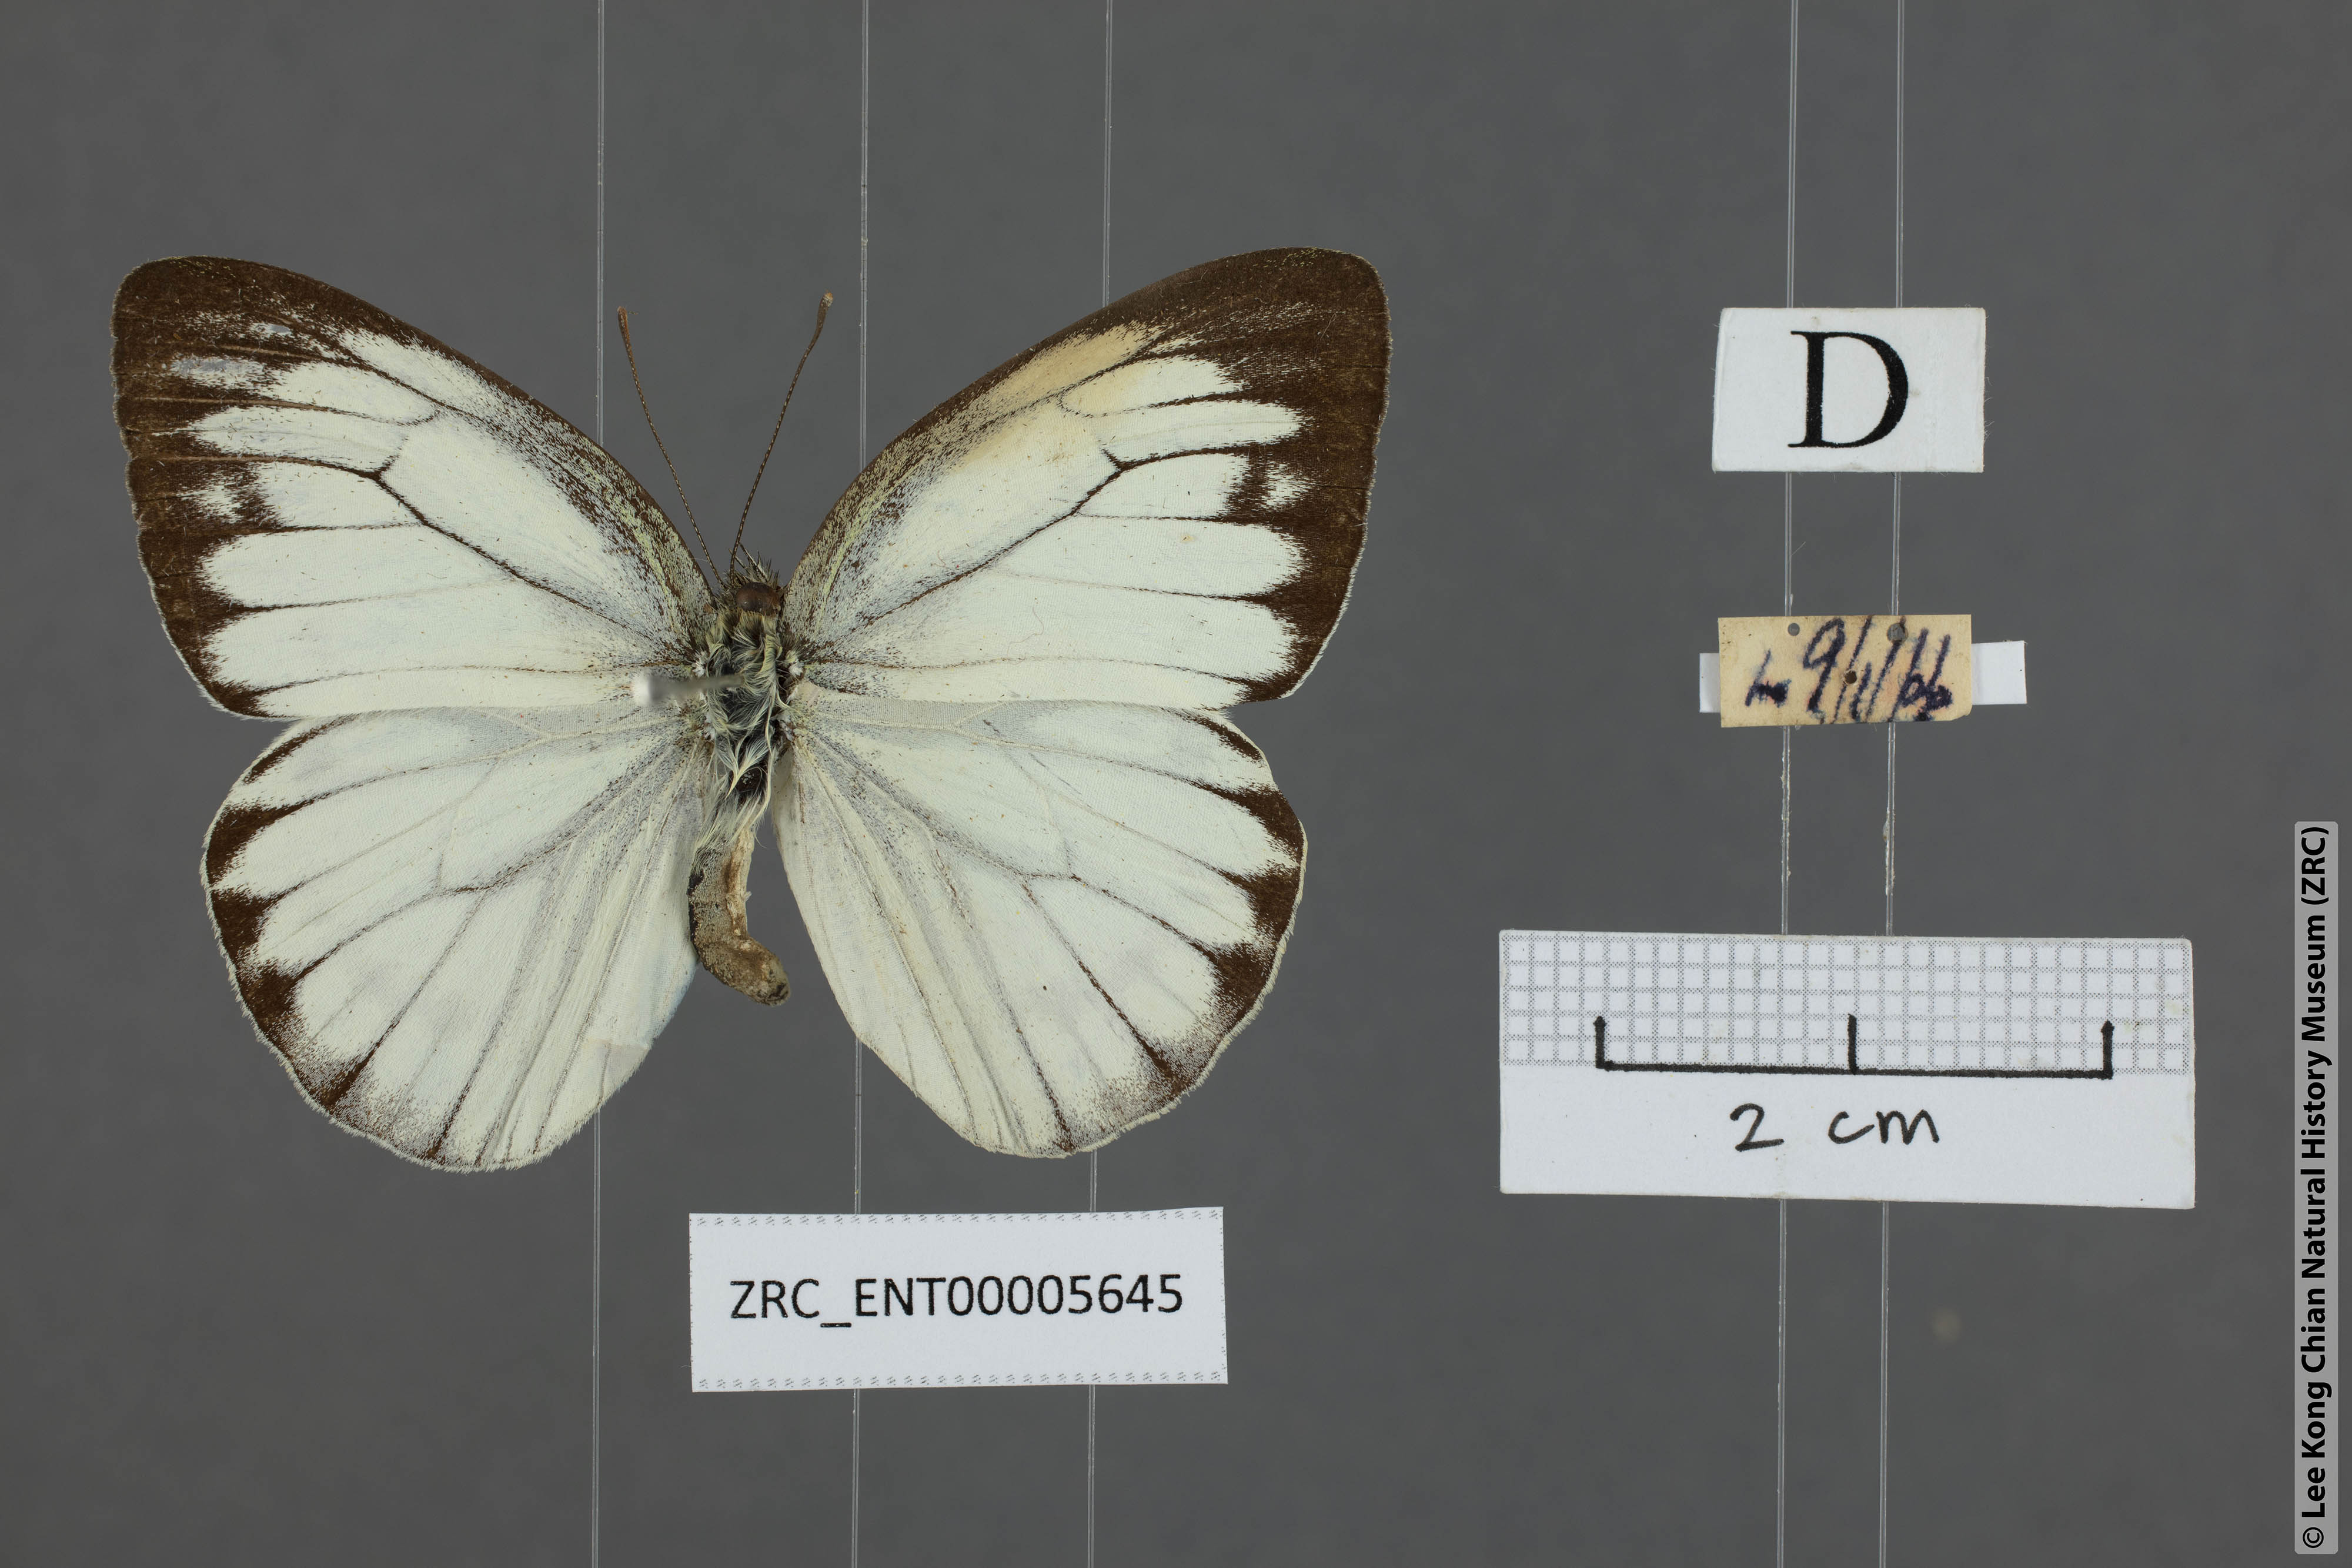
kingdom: Animalia
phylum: Arthropoda
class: Insecta
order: Lepidoptera
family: Pieridae
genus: Cepora
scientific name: Cepora nerissa
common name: Common gull
